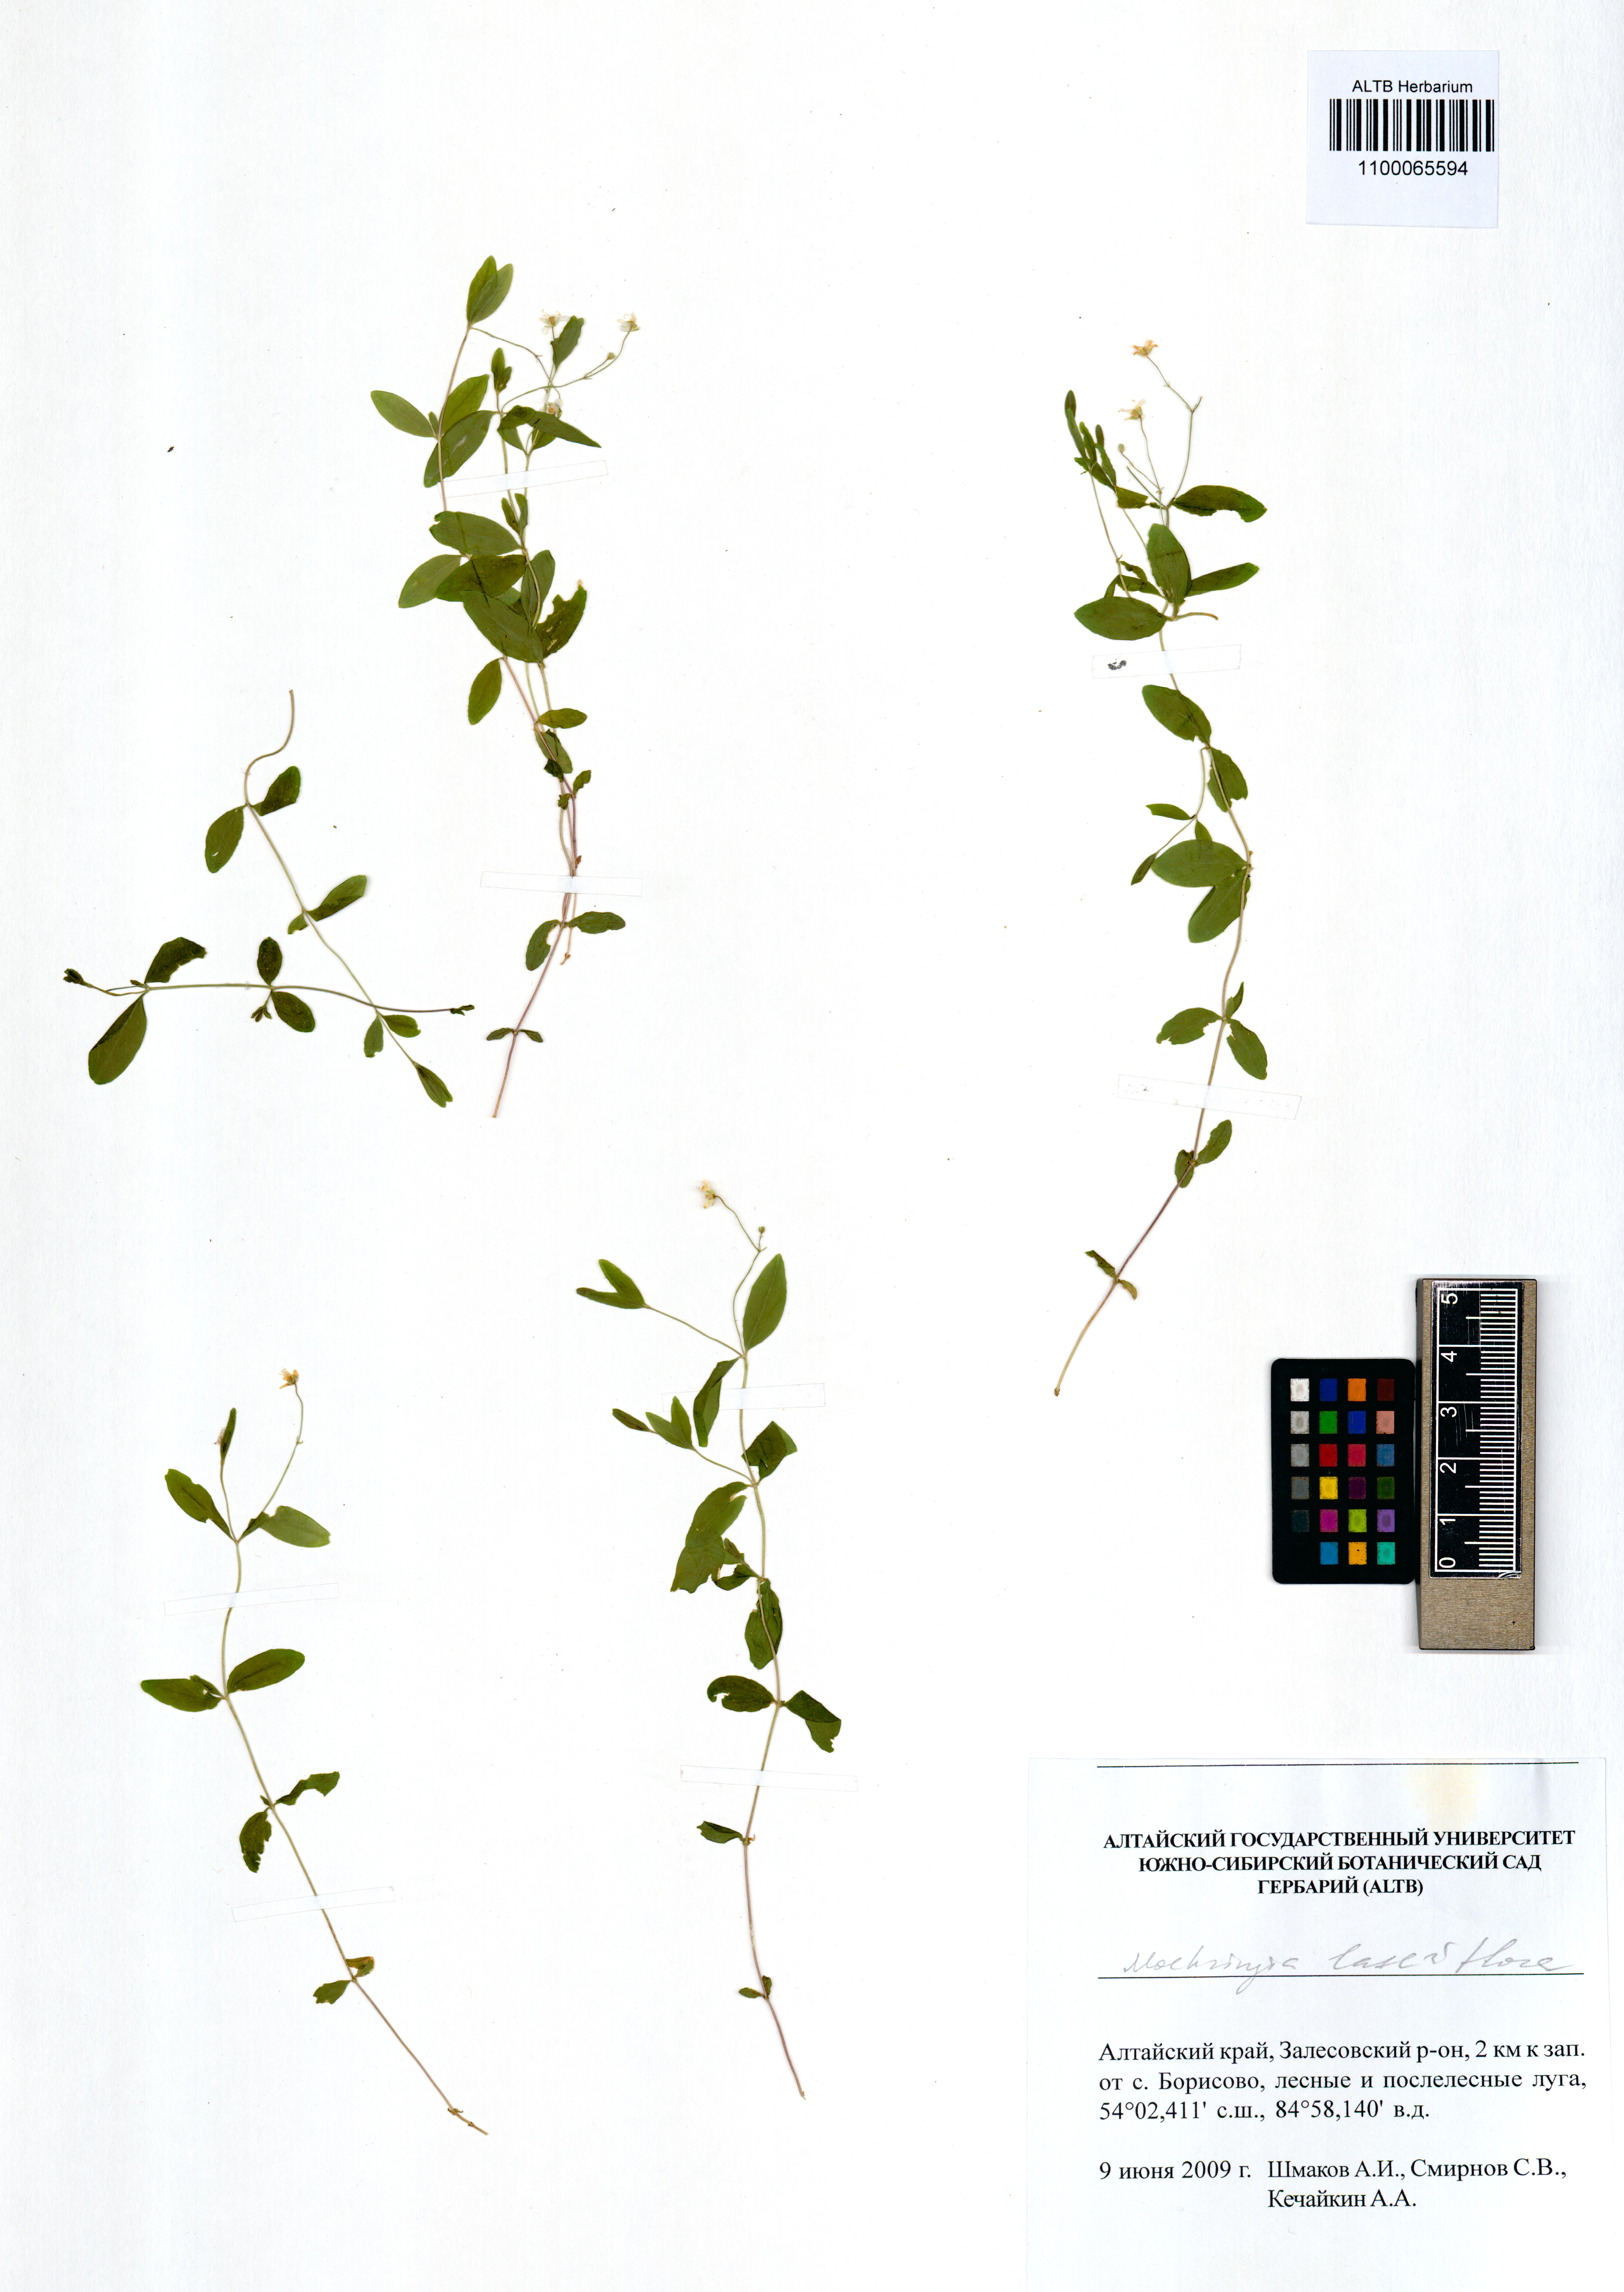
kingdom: Plantae
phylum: Tracheophyta
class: Magnoliopsida
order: Caryophyllales
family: Caryophyllaceae
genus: Moehringia
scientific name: Moehringia lateriflora
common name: Blunt-leaved sandwort
